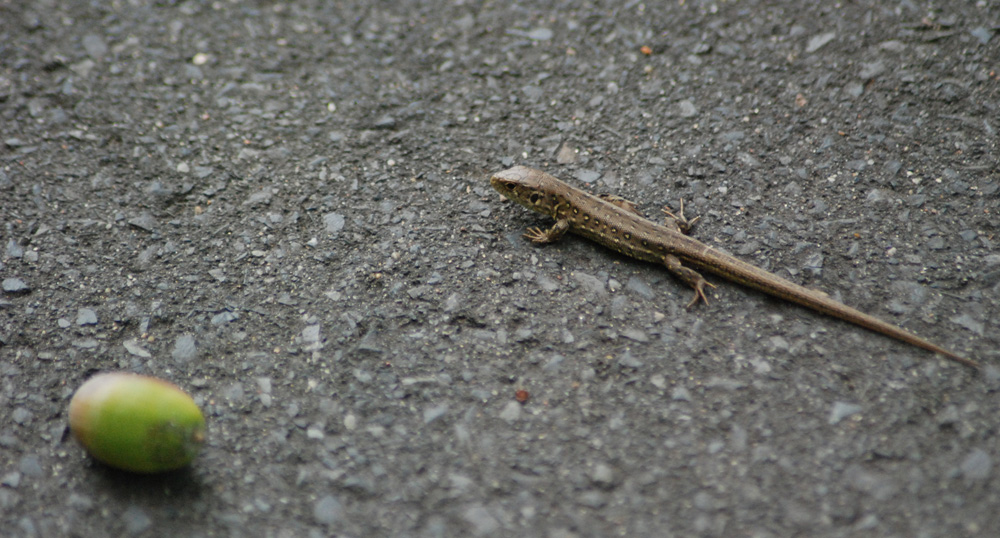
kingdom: Animalia
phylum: Chordata
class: Squamata
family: Lacertidae
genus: Lacerta
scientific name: Lacerta agilis
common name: Sand lizard
